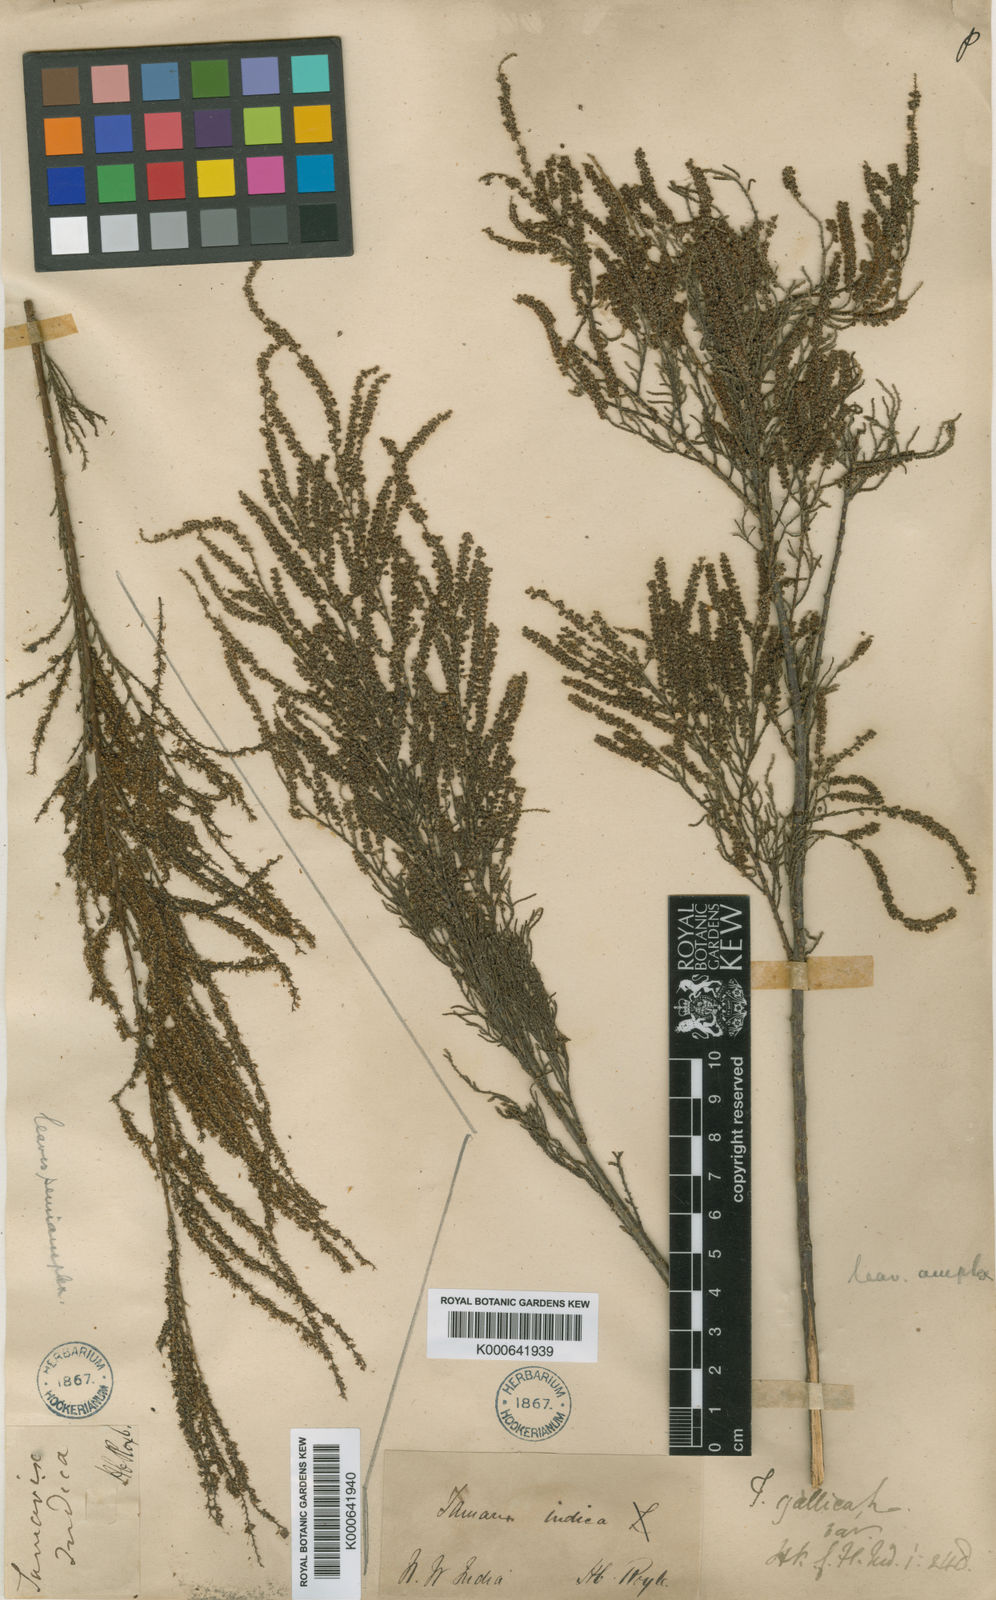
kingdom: Plantae
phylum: Tracheophyta
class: Magnoliopsida
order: Caryophyllales
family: Tamaricaceae
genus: Tamarix
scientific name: Tamarix indica
